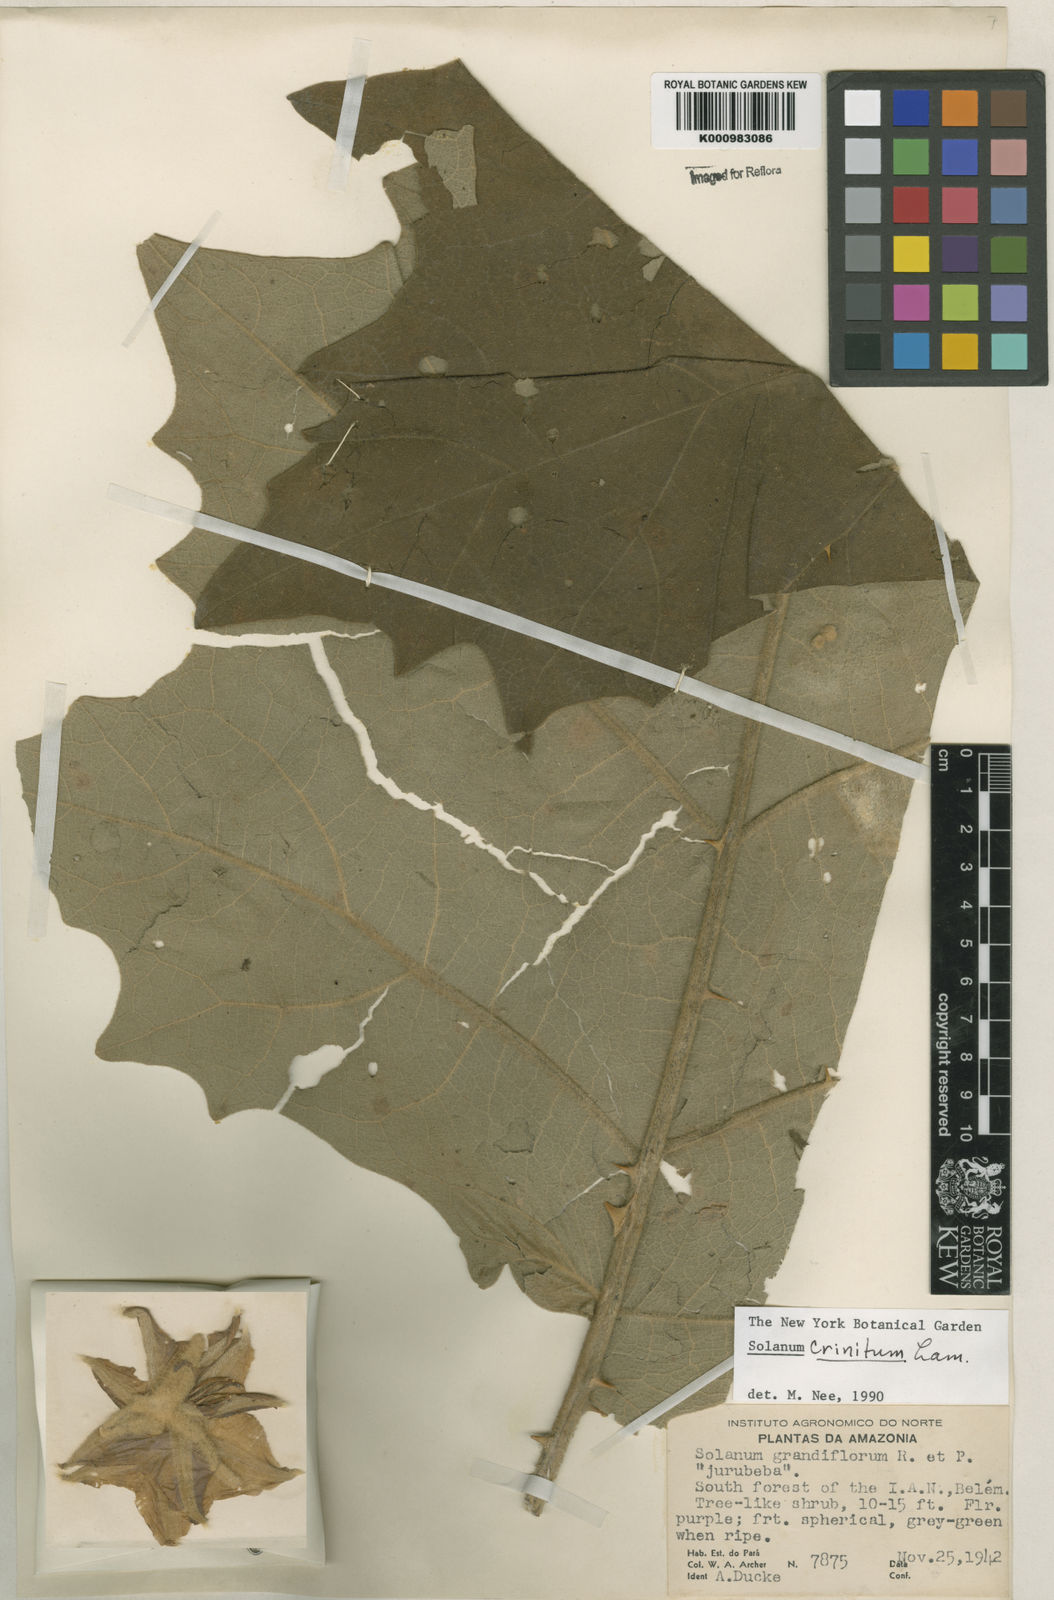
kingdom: Plantae
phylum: Tracheophyta
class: Magnoliopsida
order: Solanales
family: Solanaceae
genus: Solanum
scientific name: Solanum crinitum
